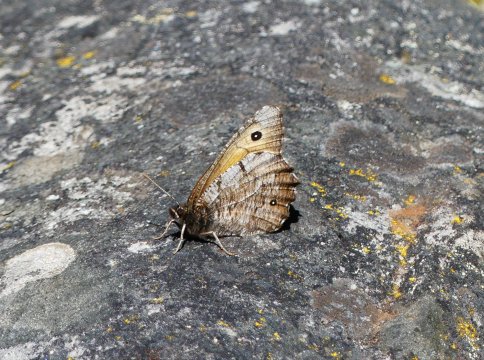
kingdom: Animalia
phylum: Arthropoda
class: Insecta
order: Lepidoptera
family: Nymphalidae
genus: Oeneis
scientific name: Oeneis nevadensis
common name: Great Arctic
